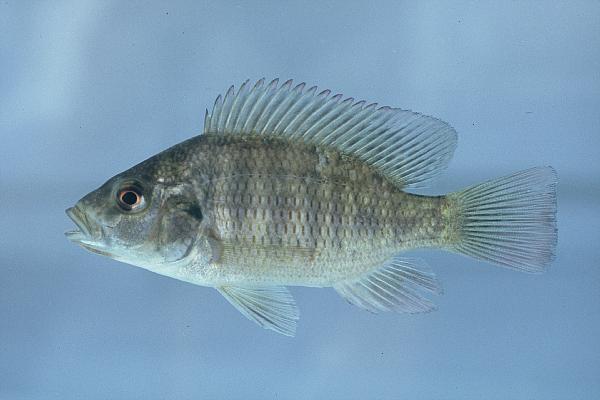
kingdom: Animalia
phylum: Chordata
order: Perciformes
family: Cichlidae
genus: Sargochromis
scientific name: Sargochromis codringtonii
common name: Green happy
